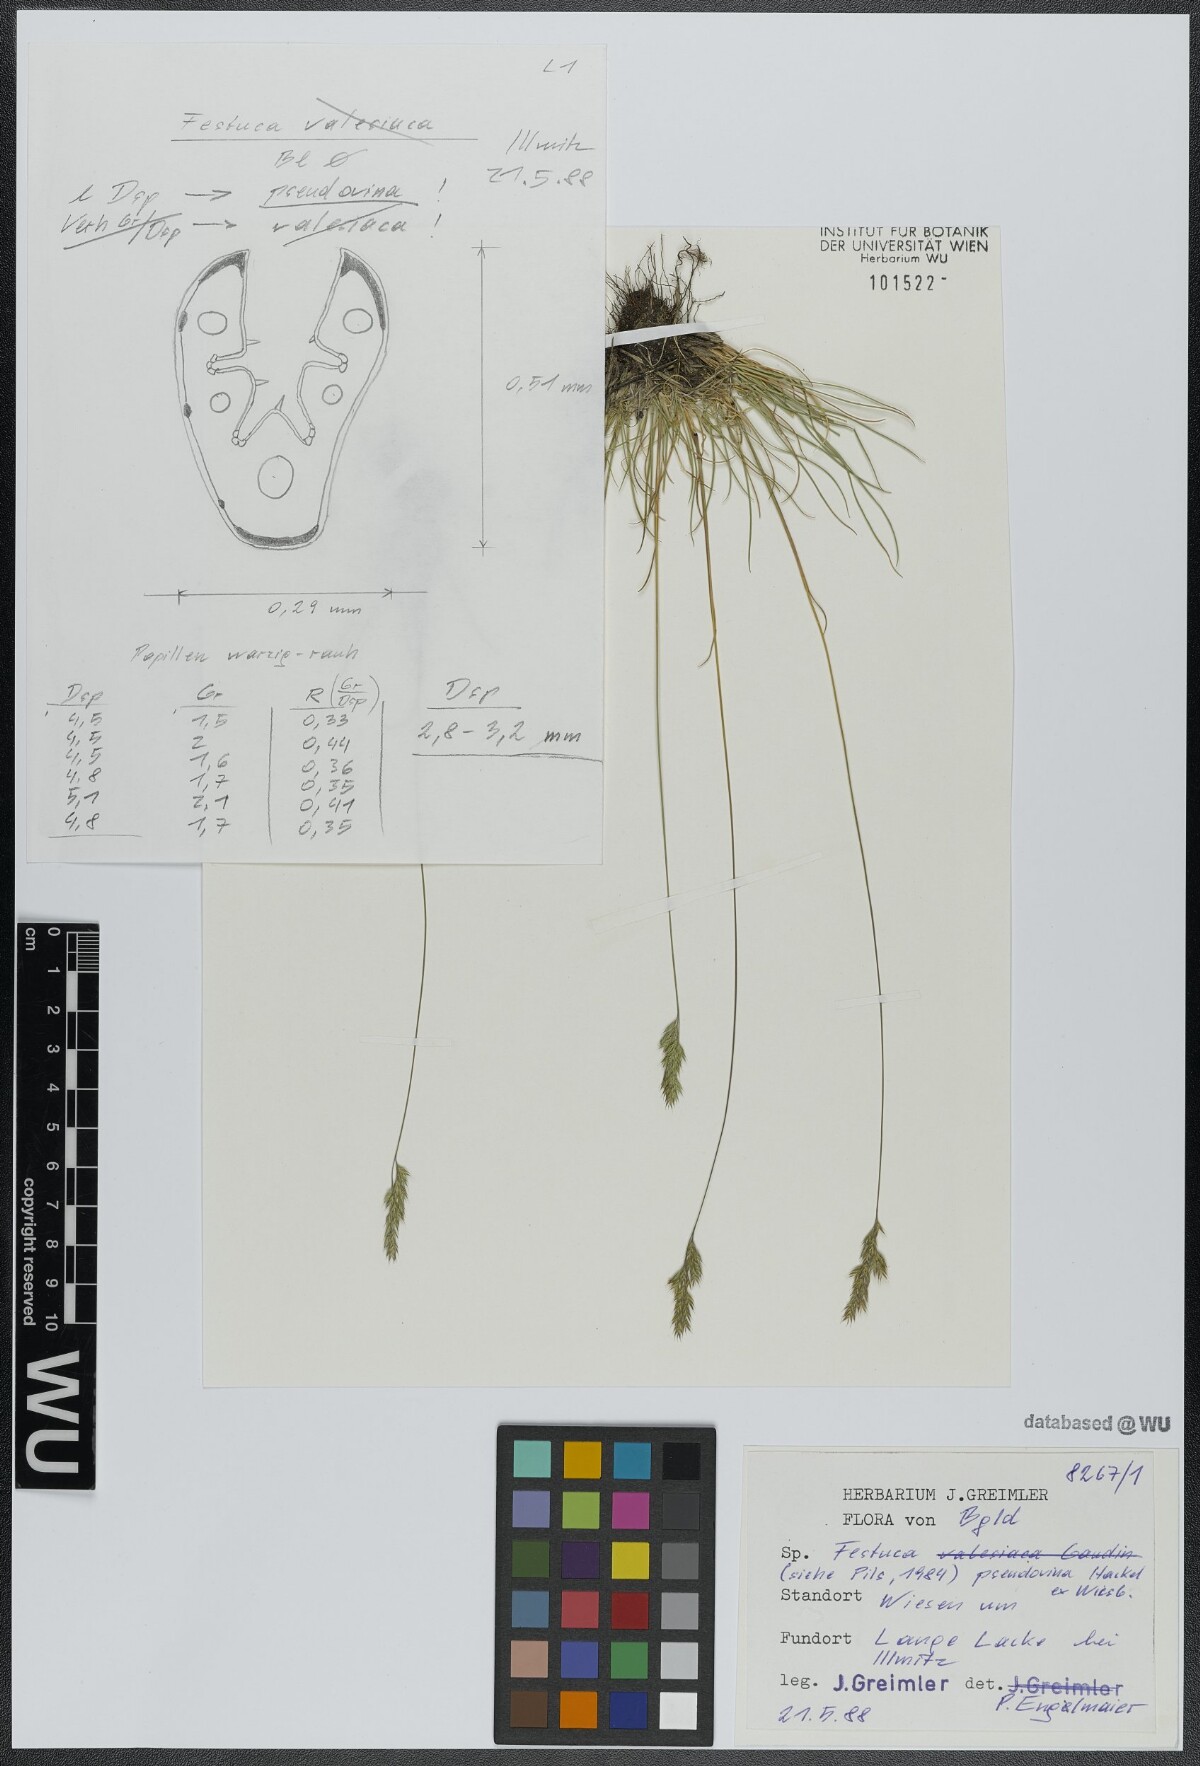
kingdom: Plantae
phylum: Tracheophyta
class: Liliopsida
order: Poales
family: Poaceae
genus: Festuca
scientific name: Festuca pulchra
